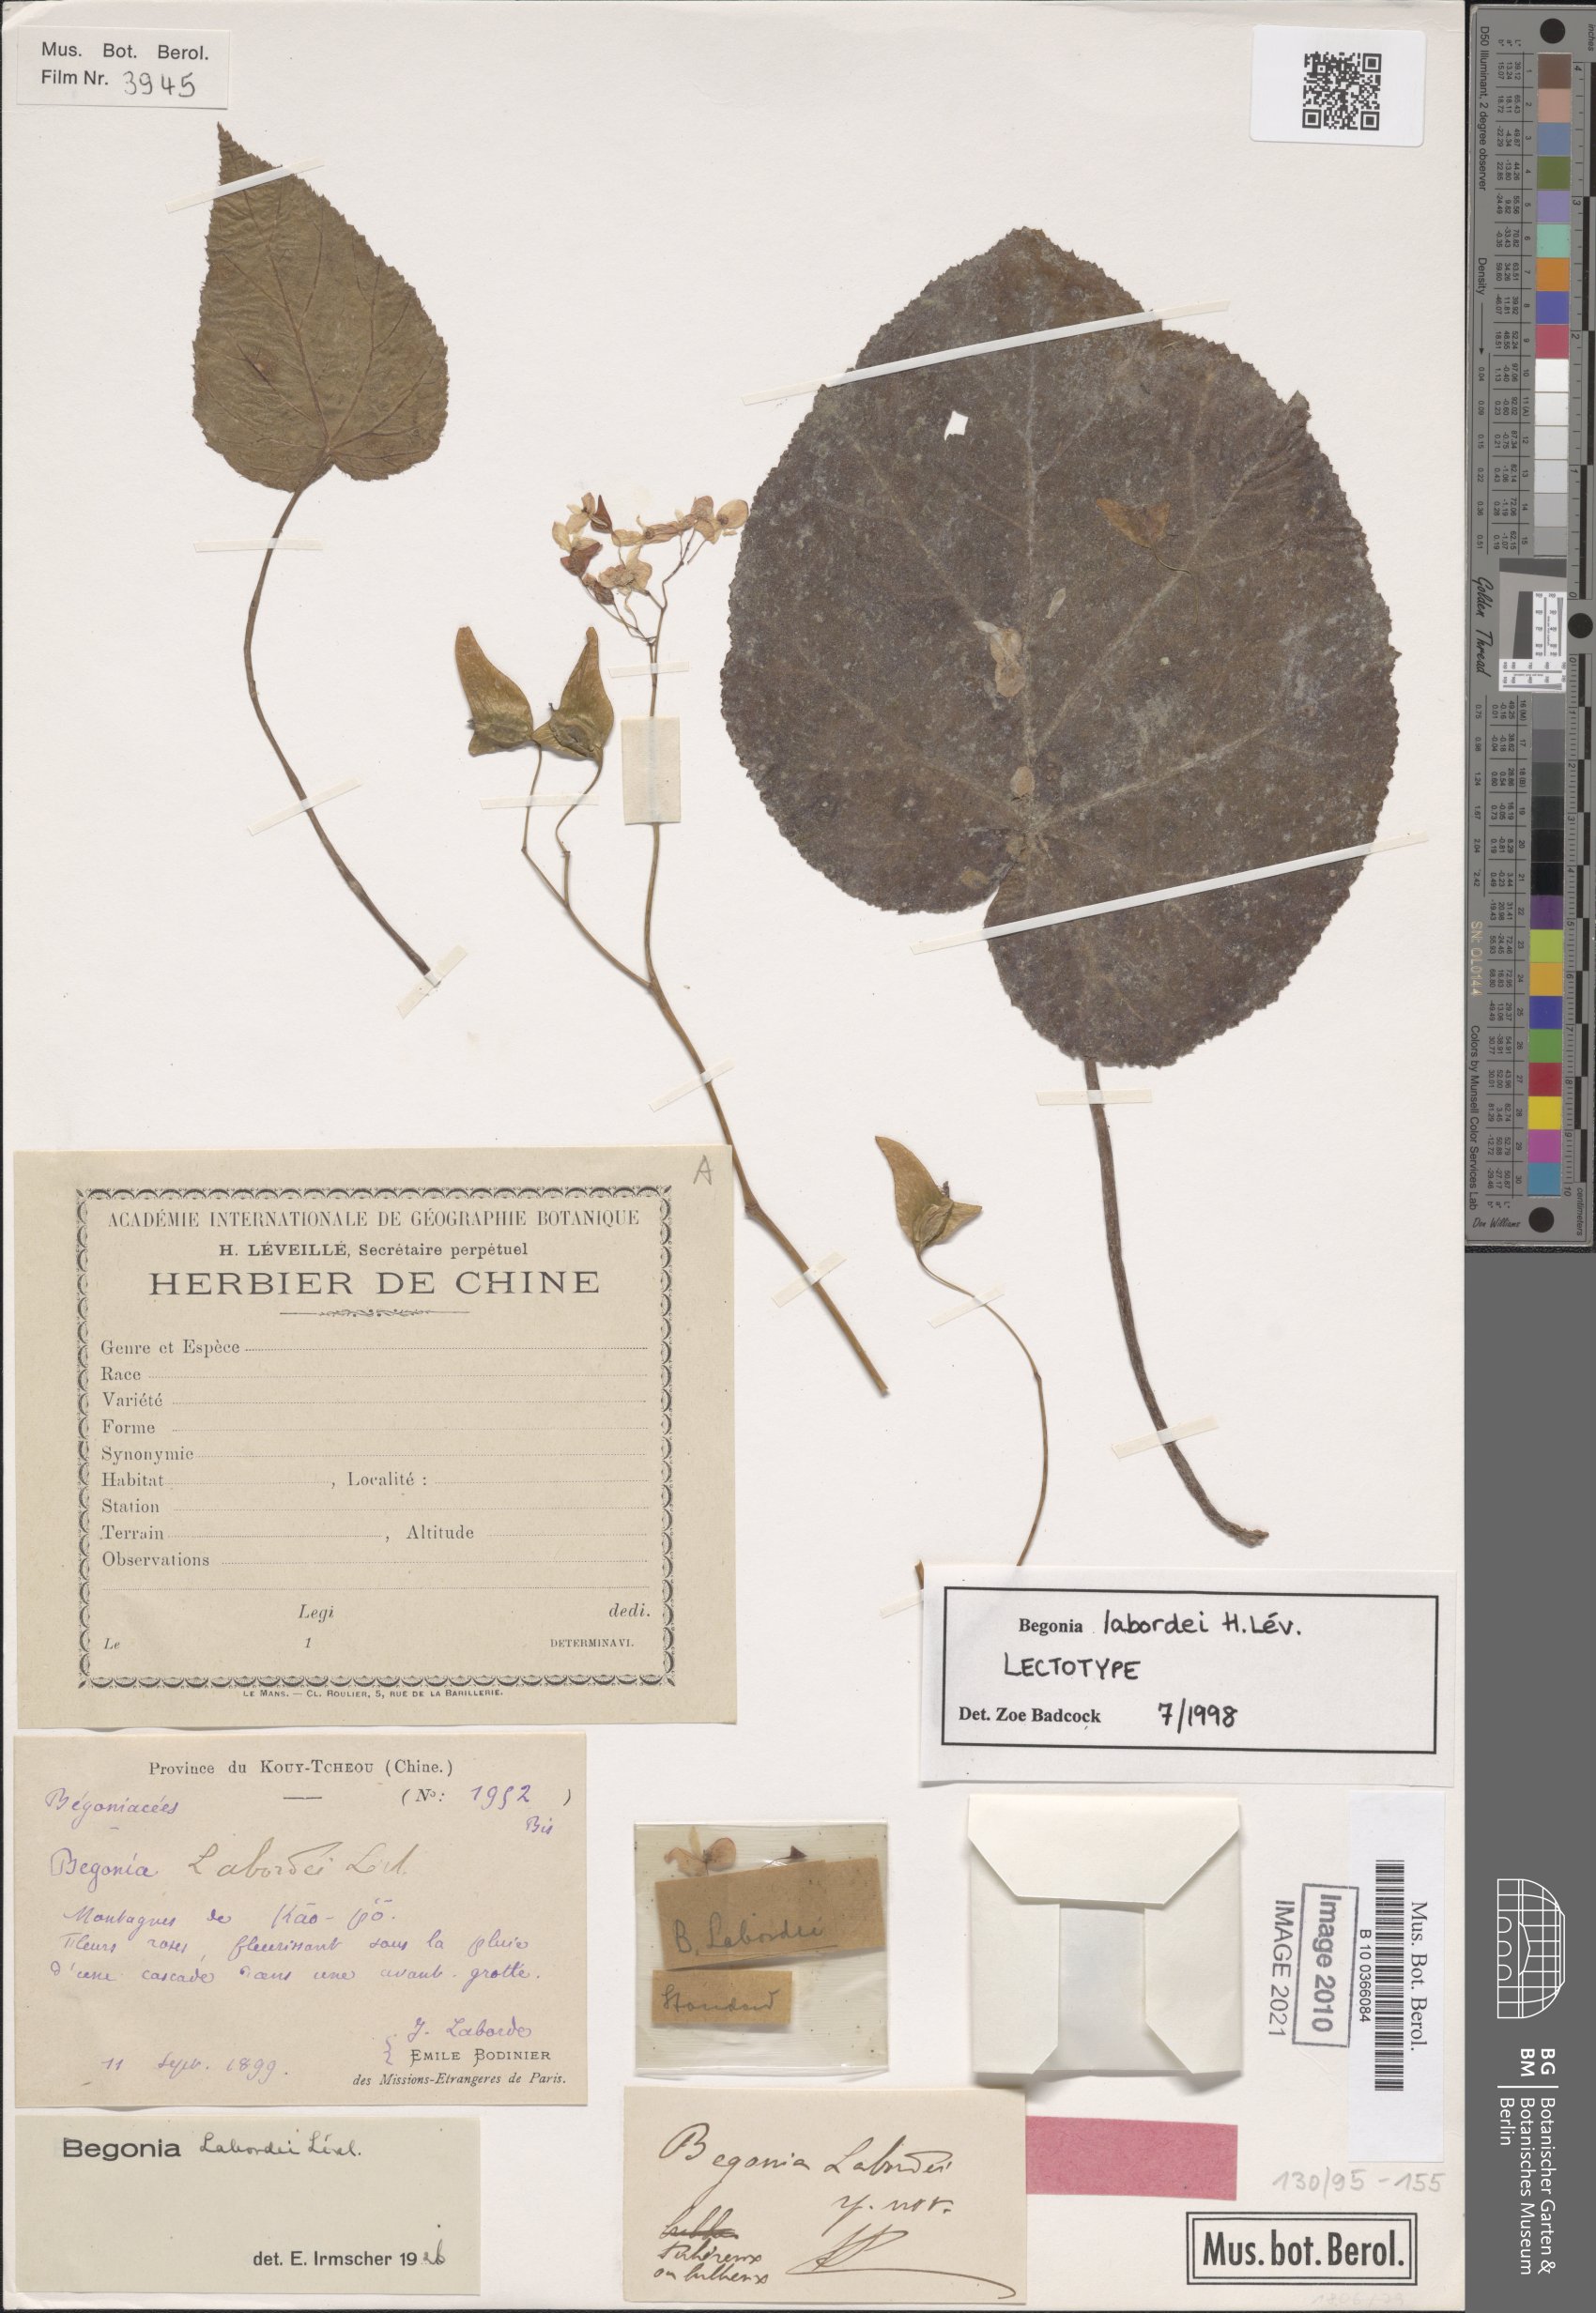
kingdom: Plantae
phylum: Tracheophyta
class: Magnoliopsida
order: Cucurbitales
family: Begoniaceae
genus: Begonia
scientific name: Begonia labordei
